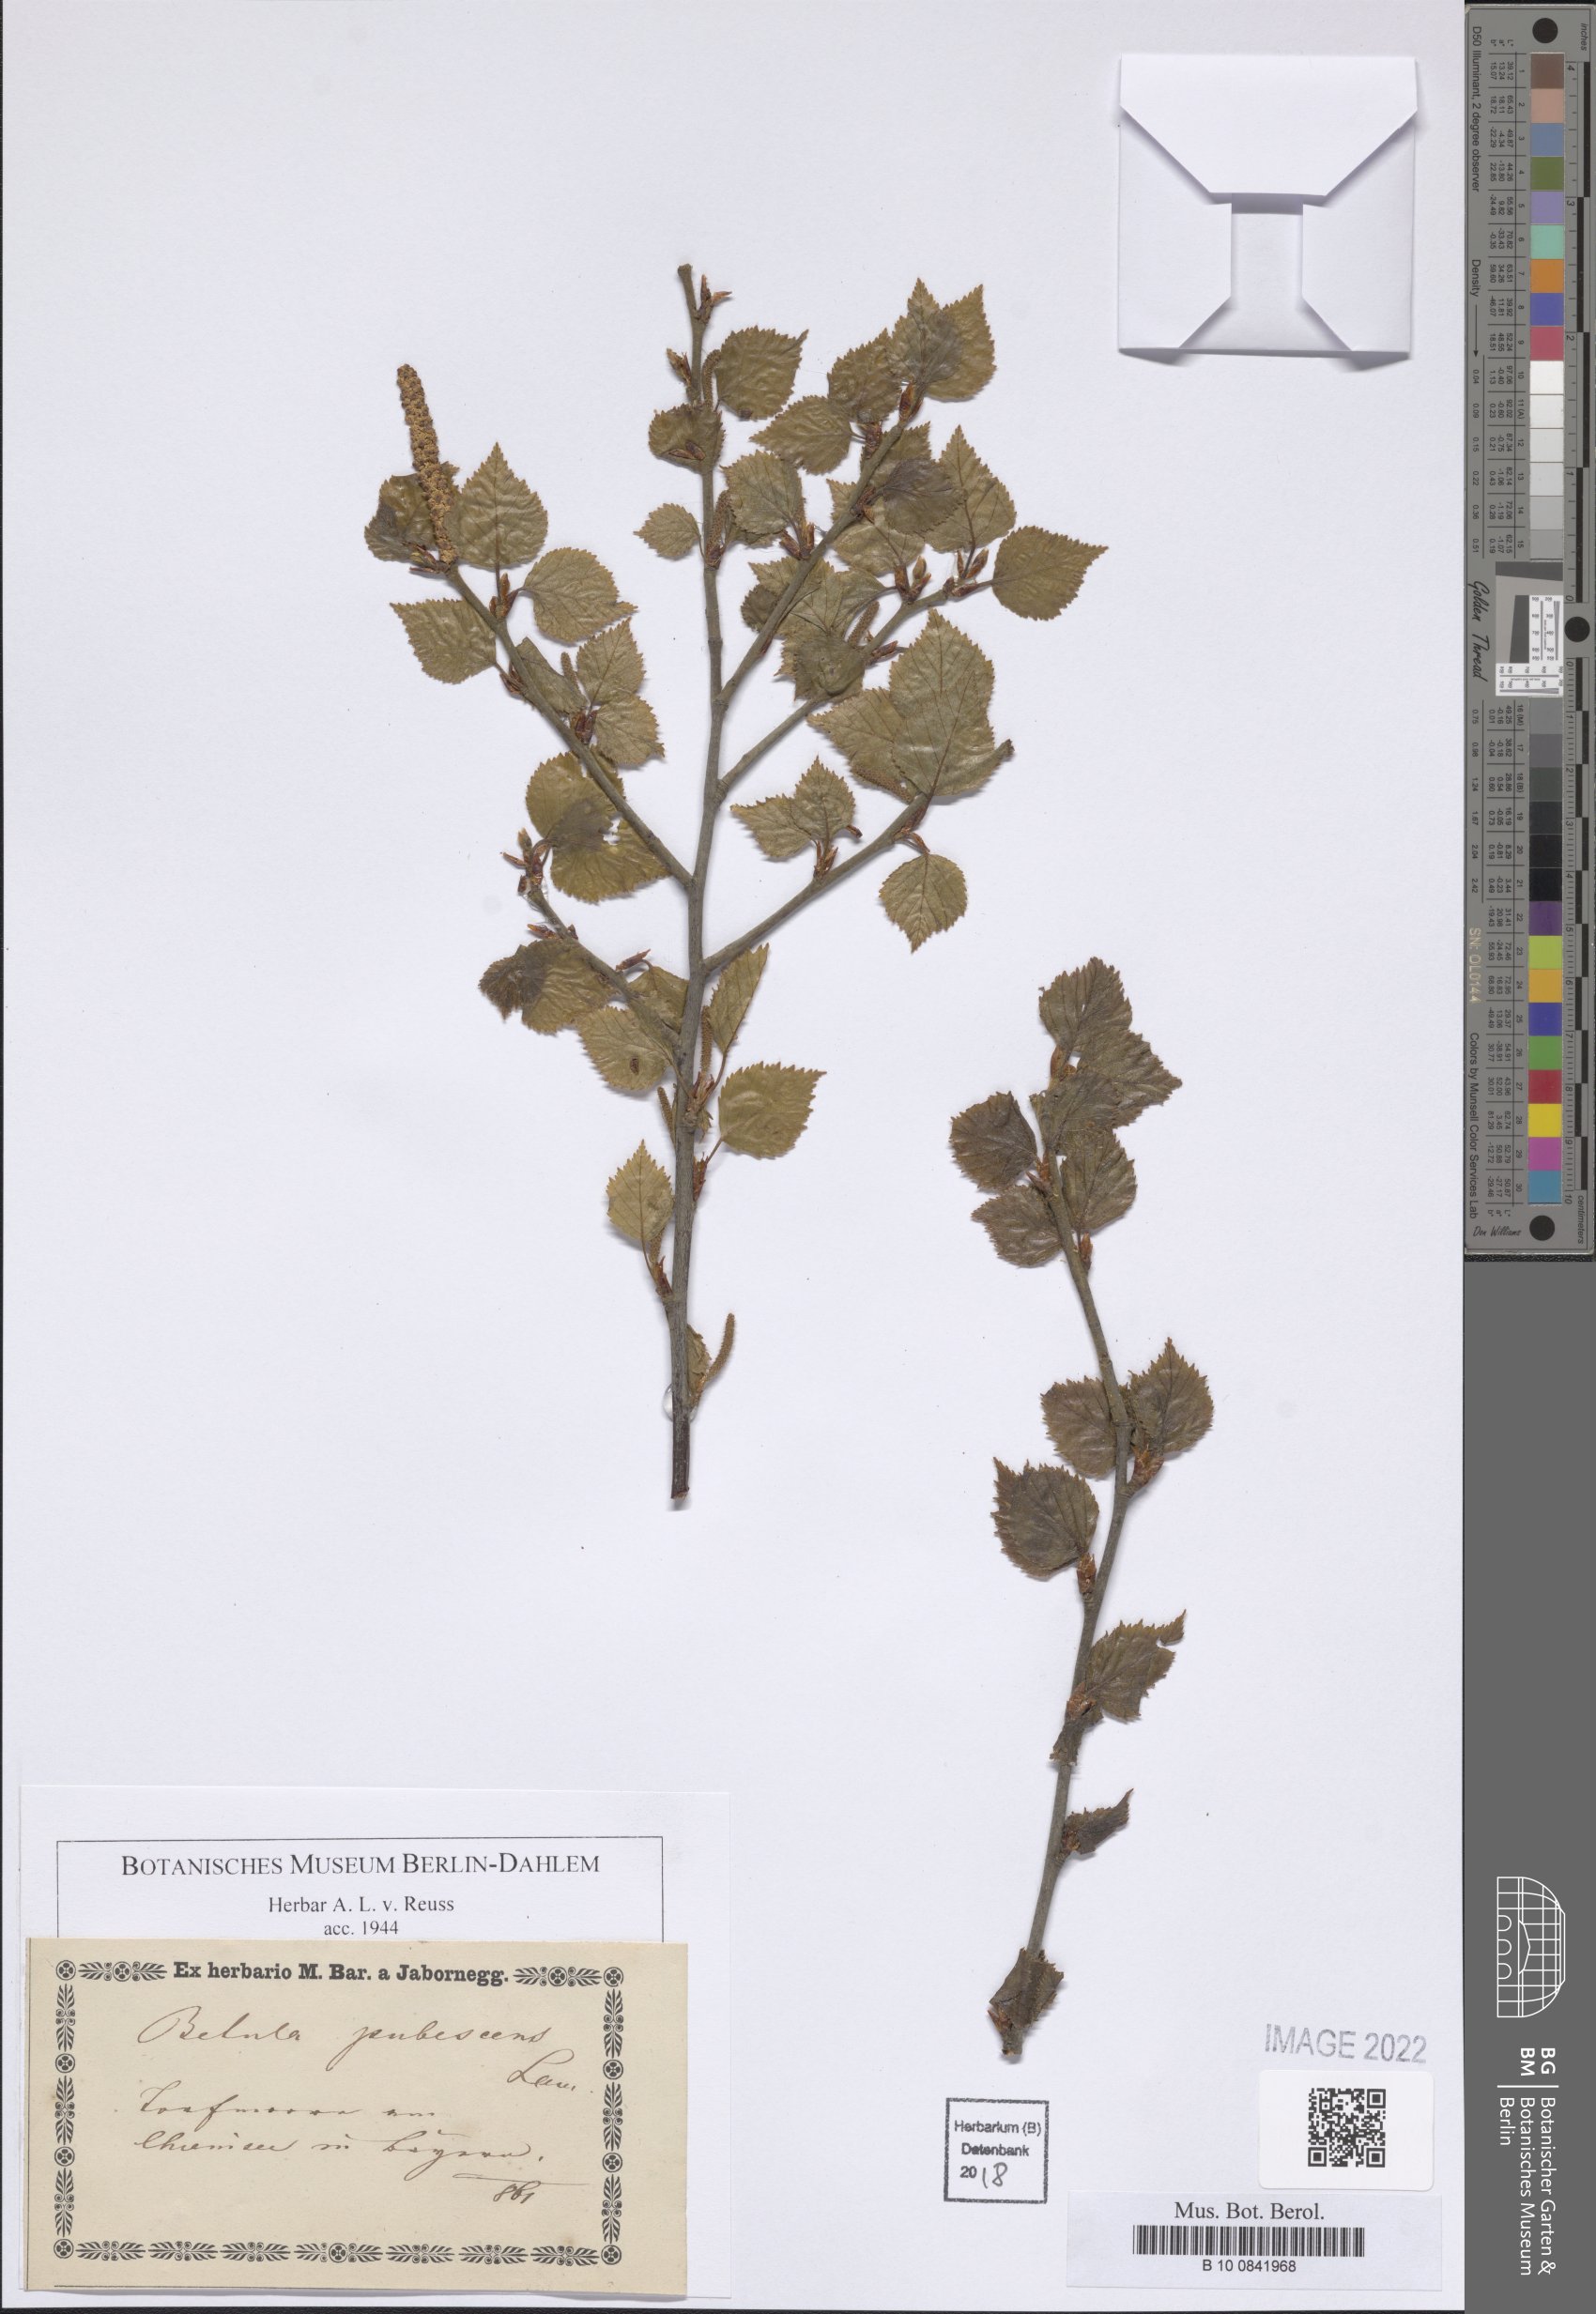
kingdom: Plantae
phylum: Tracheophyta
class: Magnoliopsida
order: Fagales
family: Betulaceae
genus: Betula
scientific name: Betula pubescens
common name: Downy birch
